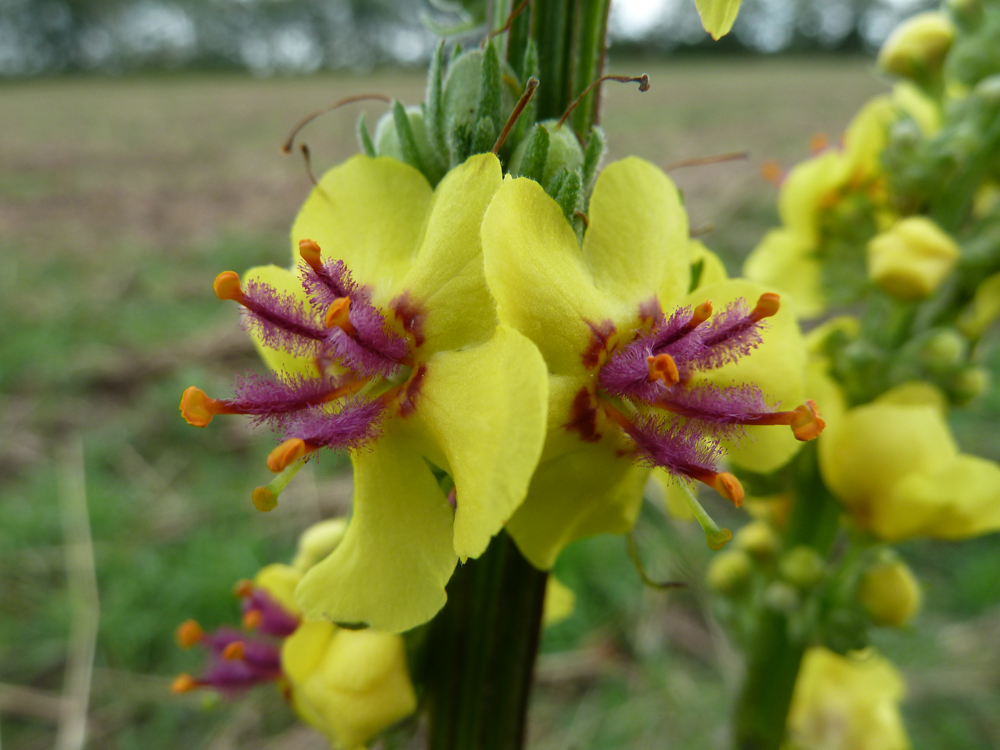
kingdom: Plantae
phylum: Tracheophyta
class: Magnoliopsida
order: Lamiales
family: Scrophulariaceae
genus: Verbascum
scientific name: Verbascum nigrum
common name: Dark mullein
